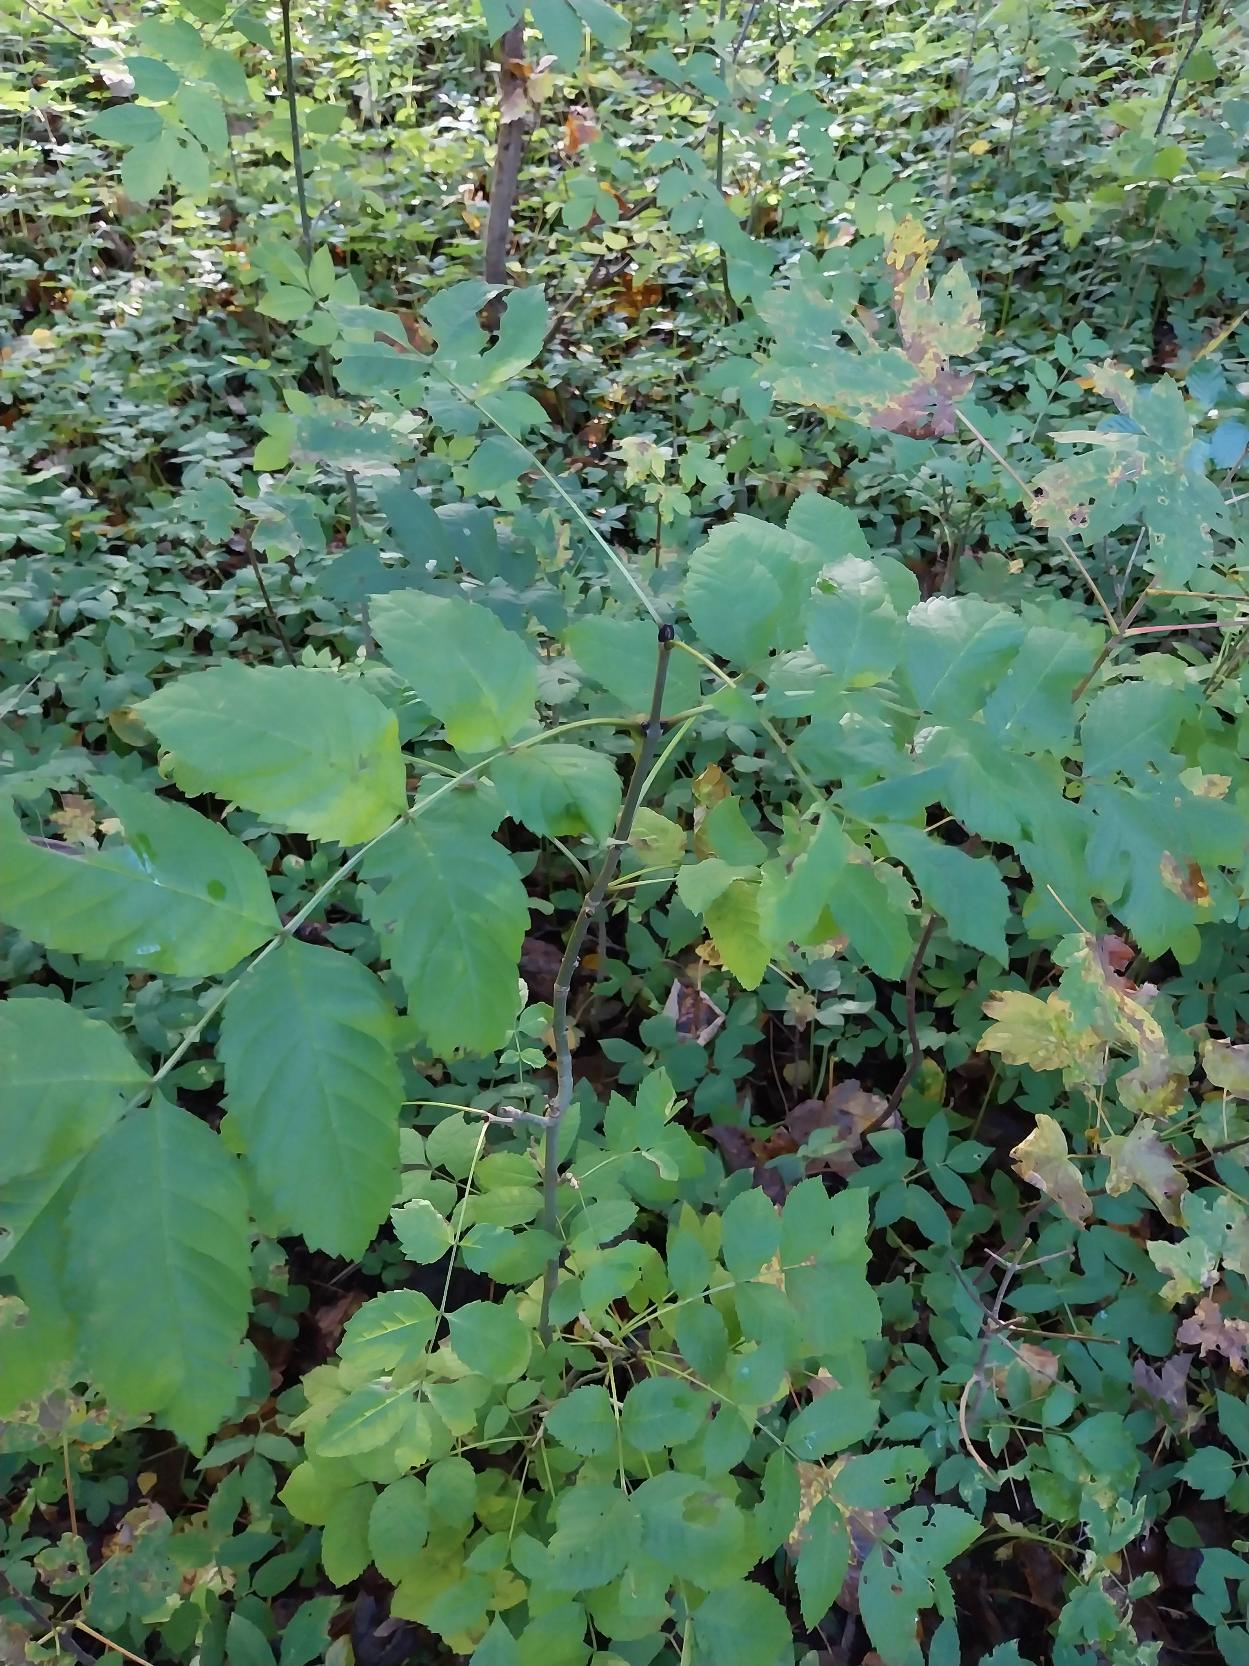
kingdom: Plantae
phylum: Tracheophyta
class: Magnoliopsida
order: Lamiales
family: Oleaceae
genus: Fraxinus
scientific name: Fraxinus excelsior
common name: Ask
